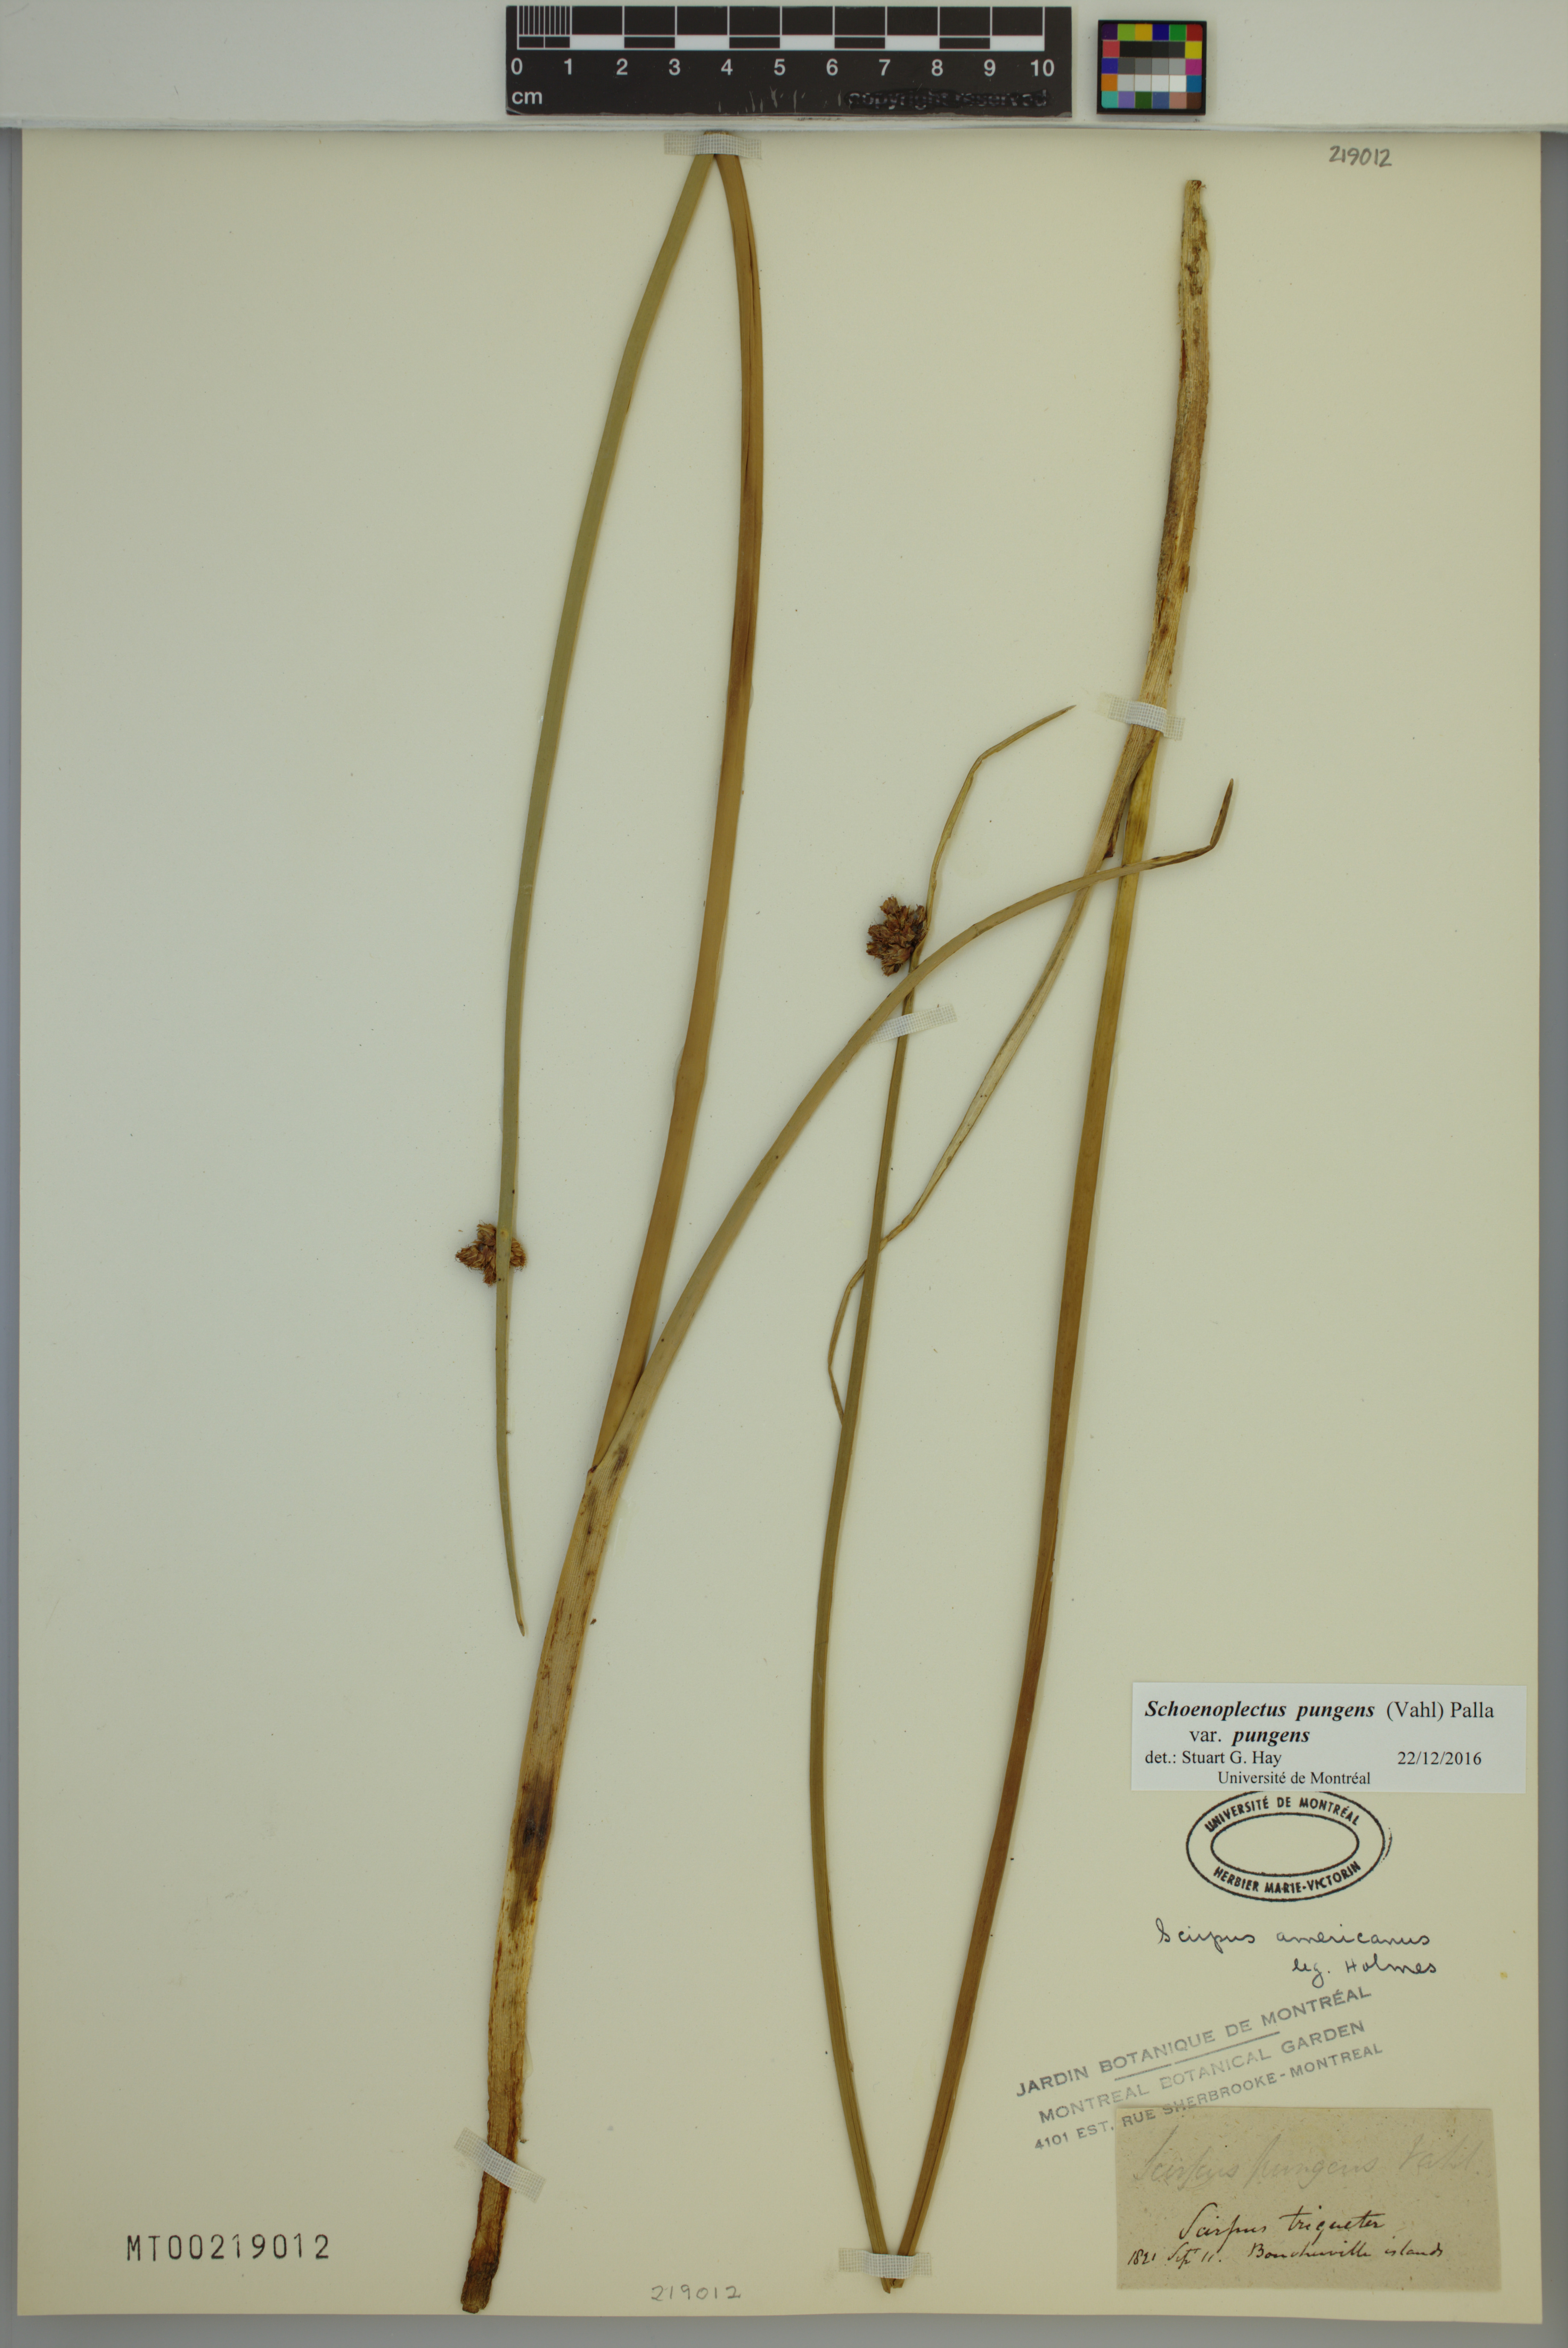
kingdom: Plantae
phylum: Tracheophyta
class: Liliopsida
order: Poales
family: Cyperaceae
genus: Schoenoplectus
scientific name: Schoenoplectus pungens
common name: Sharp club-rush
